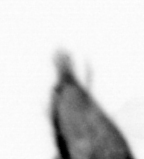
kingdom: Animalia
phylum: Arthropoda
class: Maxillopoda
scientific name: Maxillopoda
